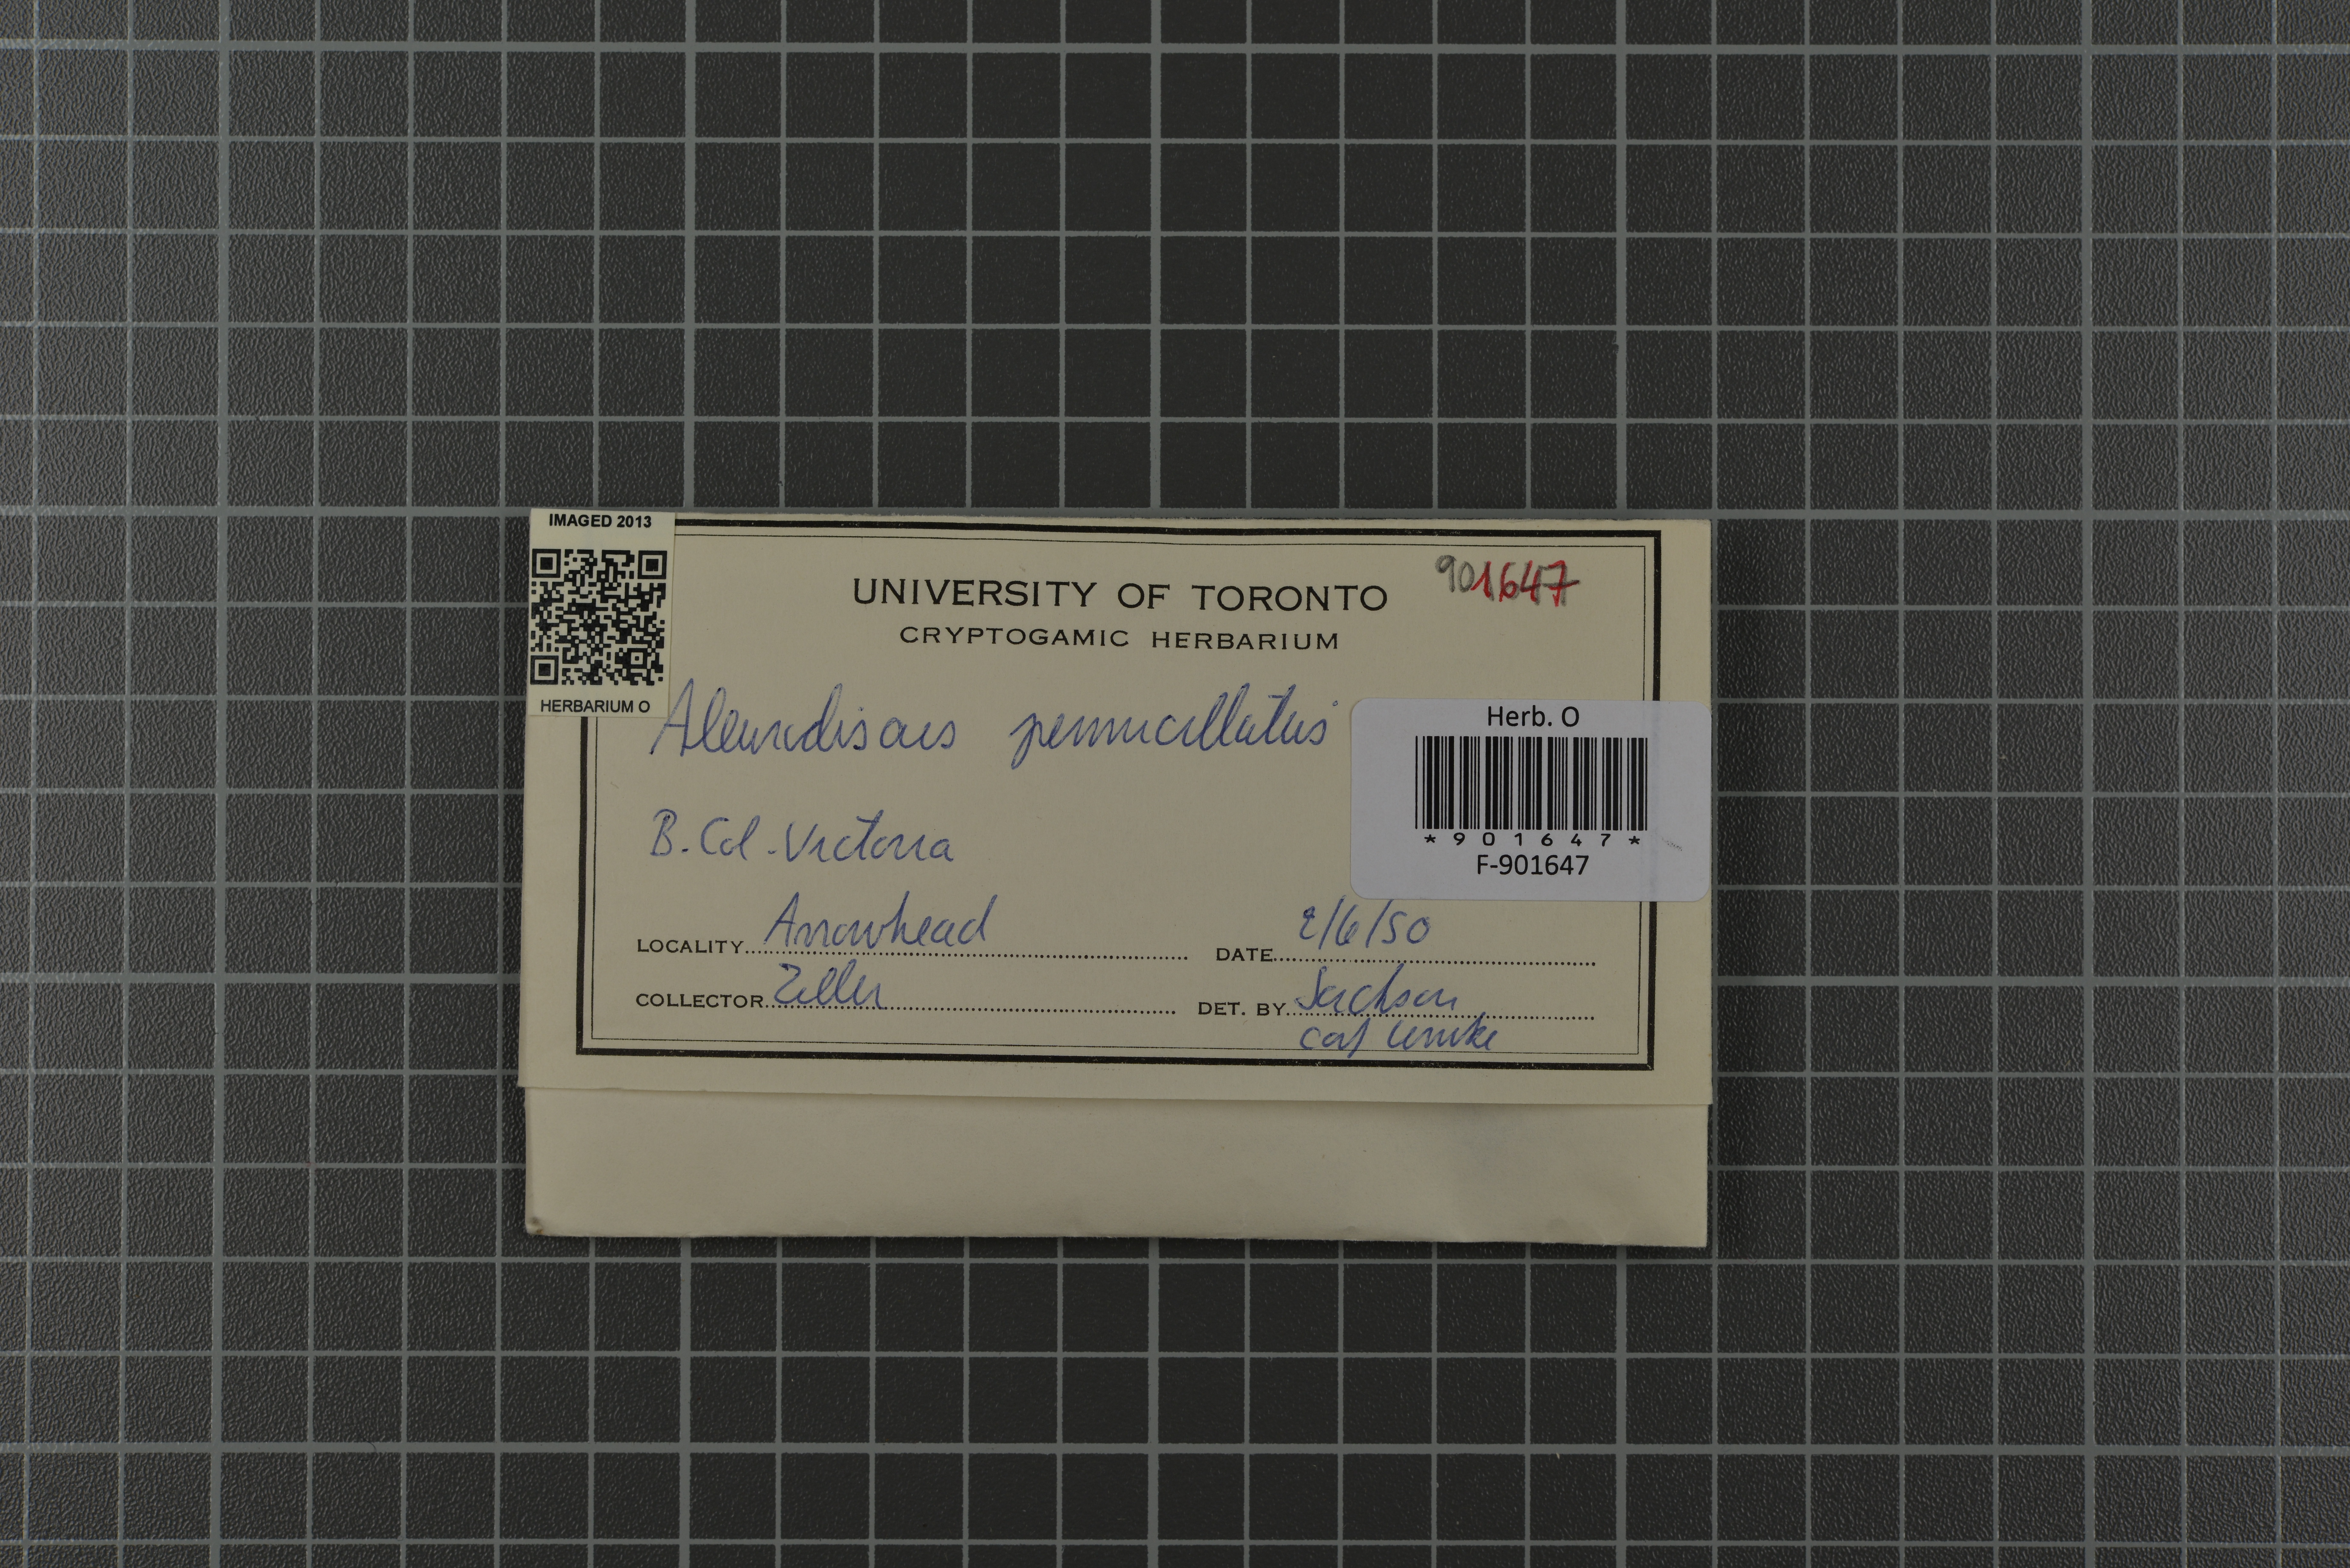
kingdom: Fungi
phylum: Basidiomycota
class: Agaricomycetes
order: Russulales
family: Stereaceae
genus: Acanthobasidium
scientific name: Acanthobasidium penicillatum
